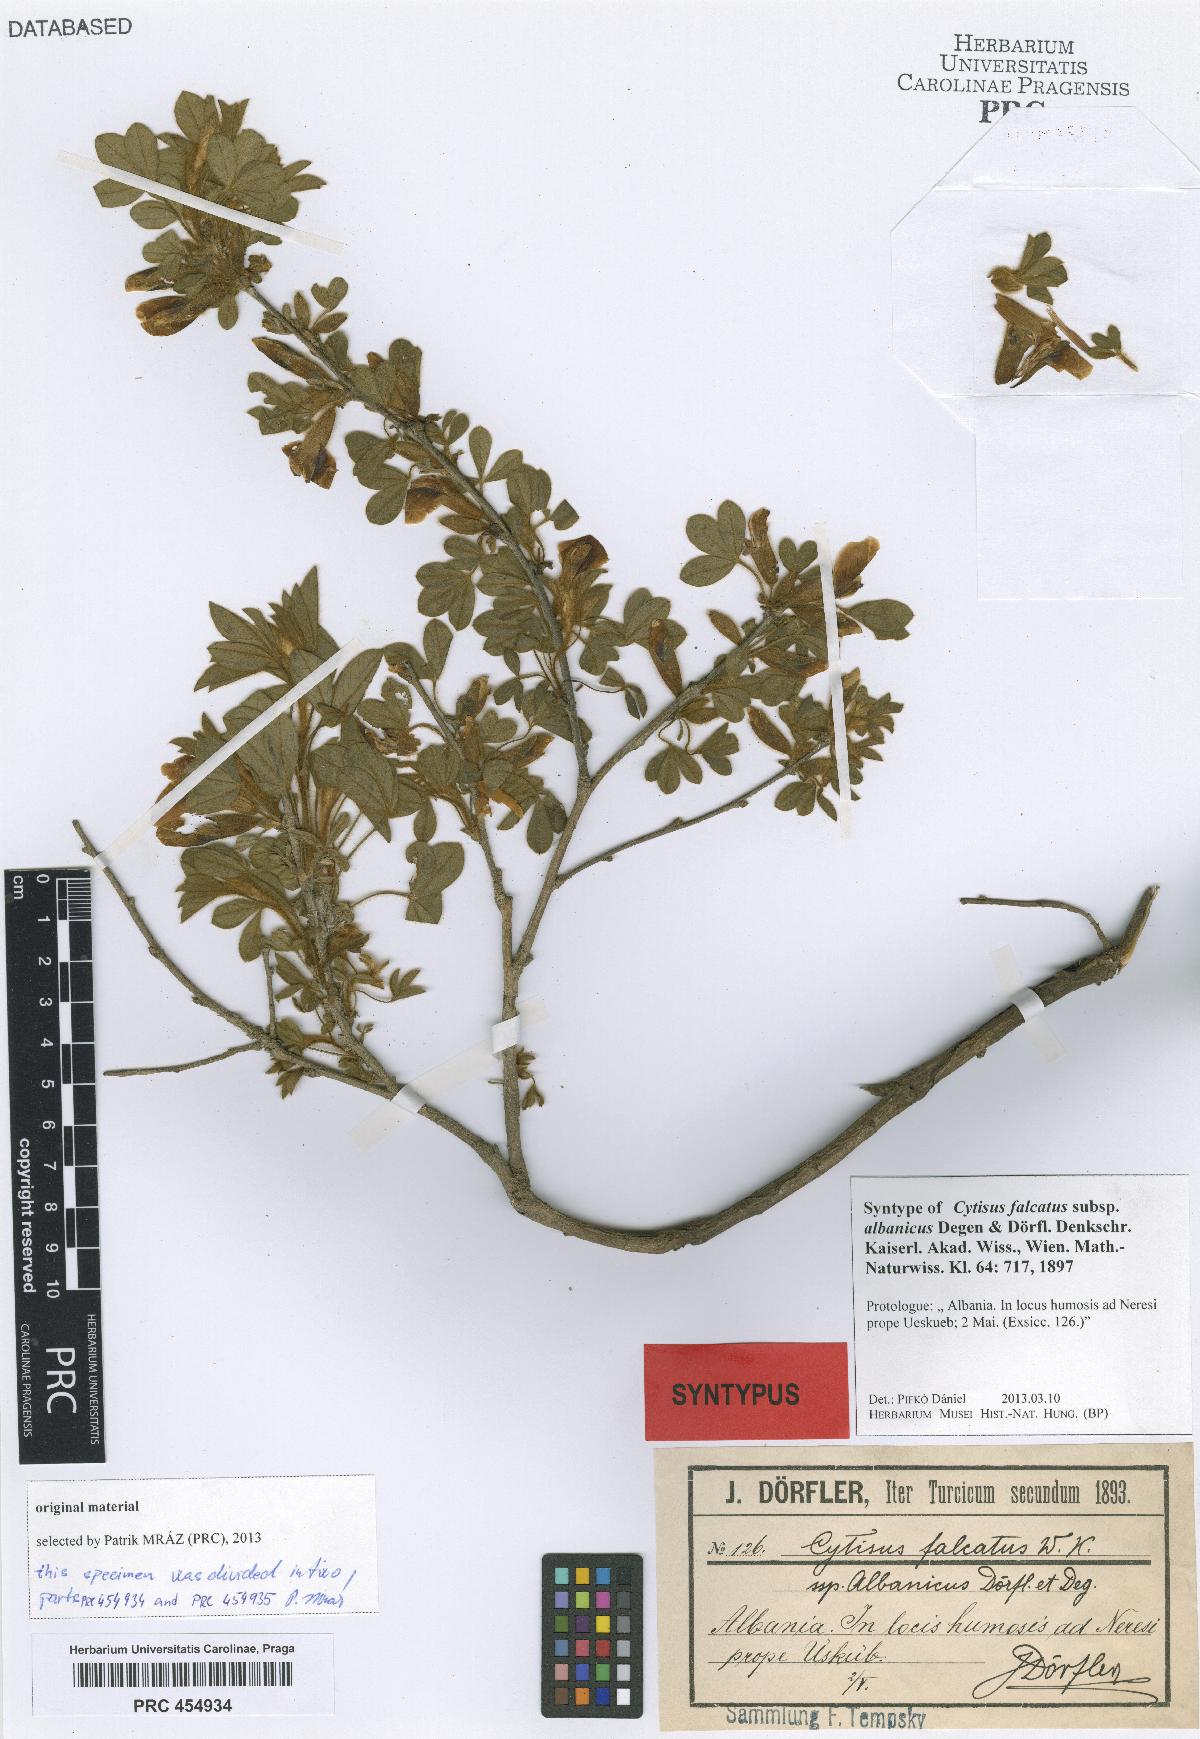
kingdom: Plantae
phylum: Tracheophyta
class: Magnoliopsida
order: Fabales
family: Fabaceae
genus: Chamaecytisus
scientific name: Chamaecytisus triflorus
